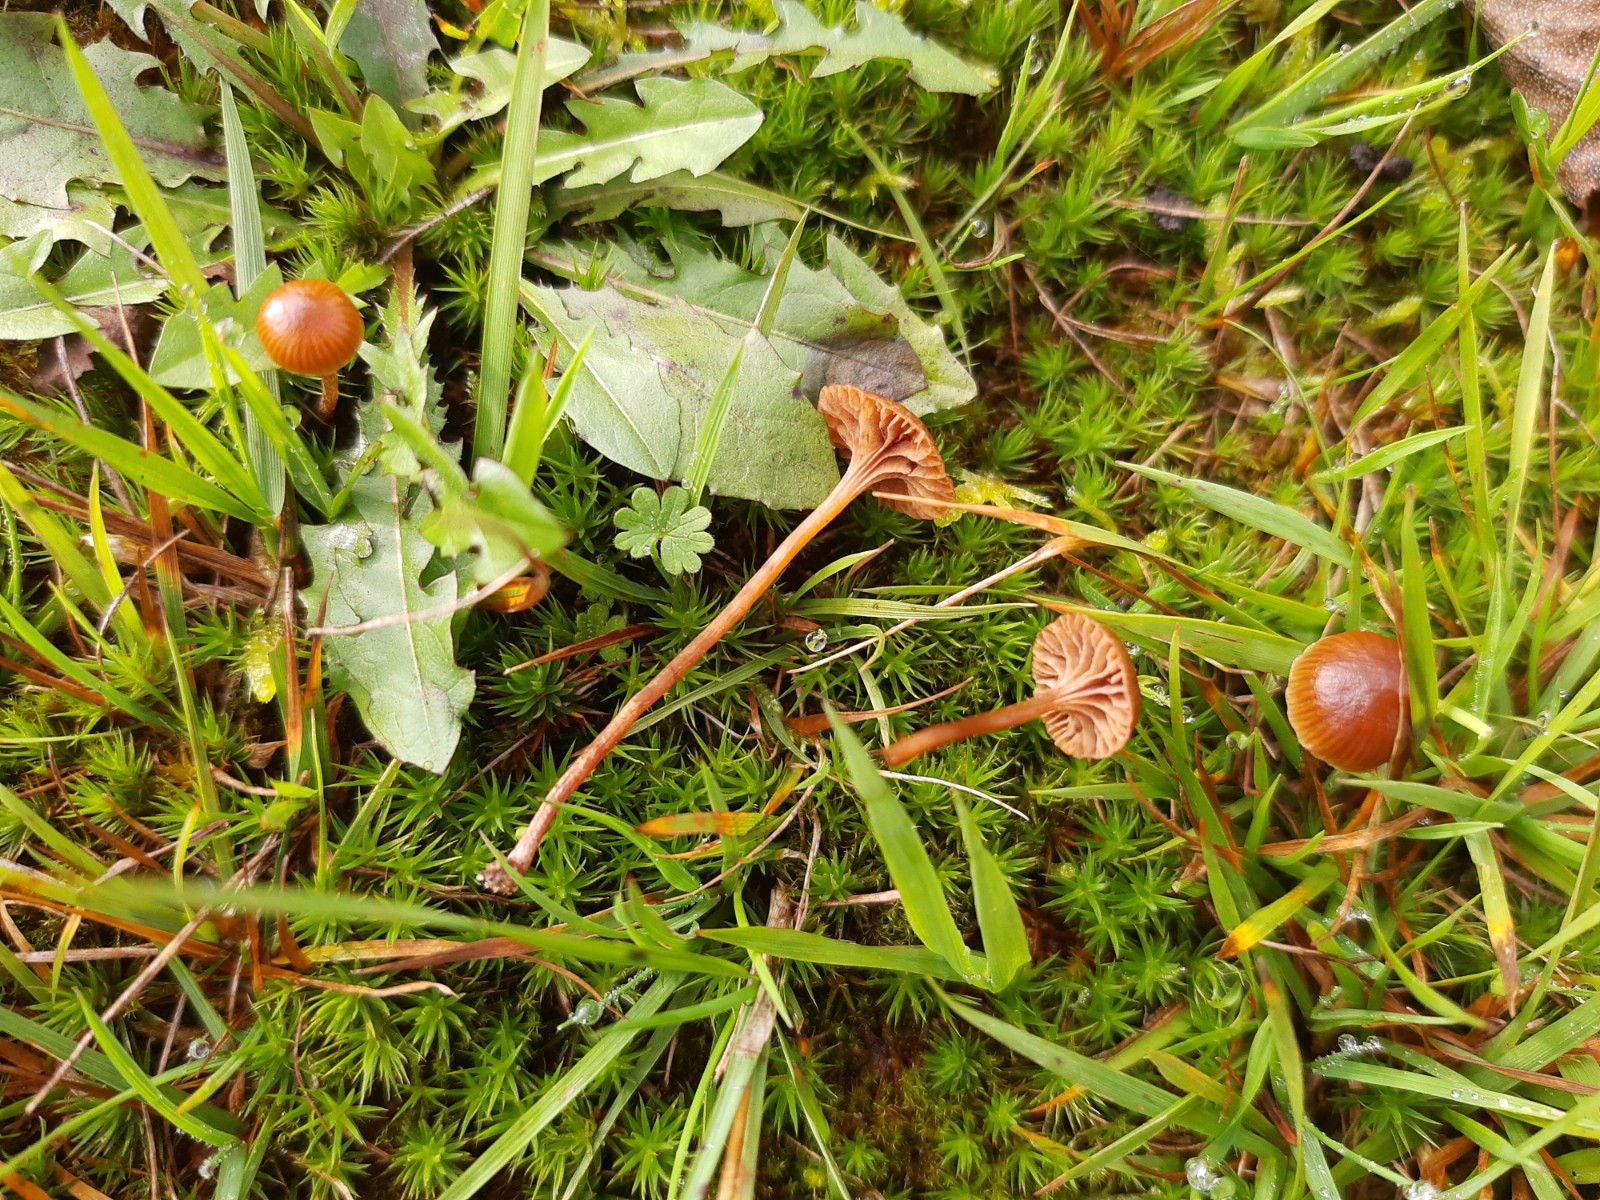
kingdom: Fungi
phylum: Basidiomycota
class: Agaricomycetes
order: Agaricales
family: Strophariaceae
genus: Deconica
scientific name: Deconica montana
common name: rødbrun stråhat
